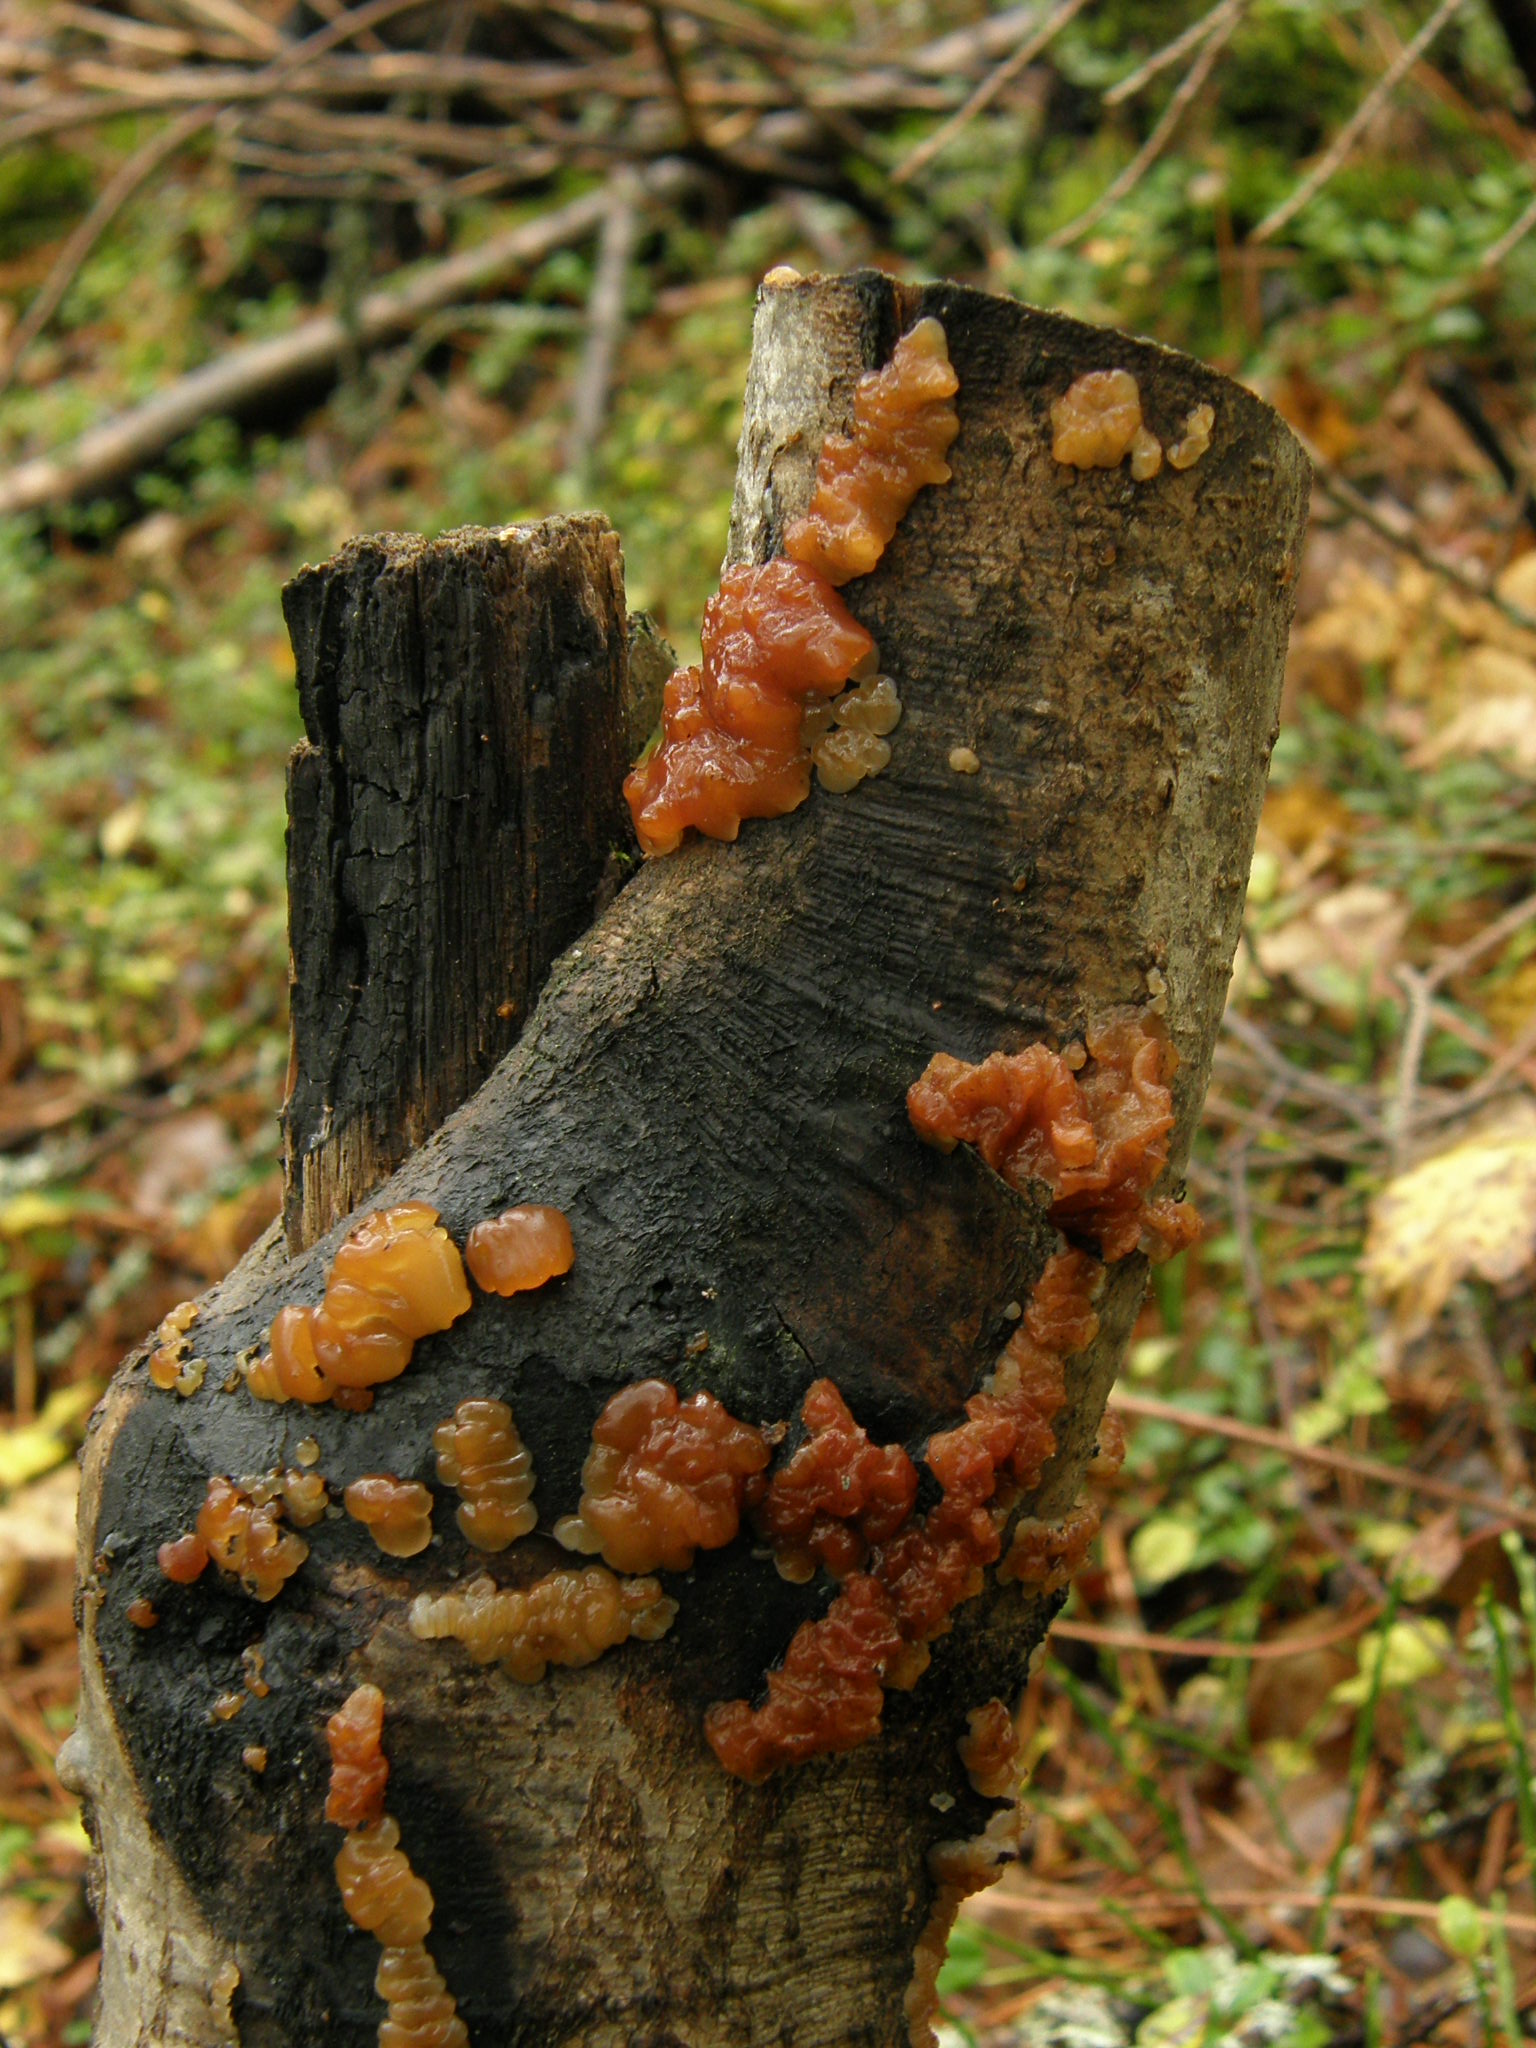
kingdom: Fungi
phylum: Basidiomycota
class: Agaricomycetes
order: Auriculariales
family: Auriculariaceae
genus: Exidia
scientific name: Exidia cartilaginea
